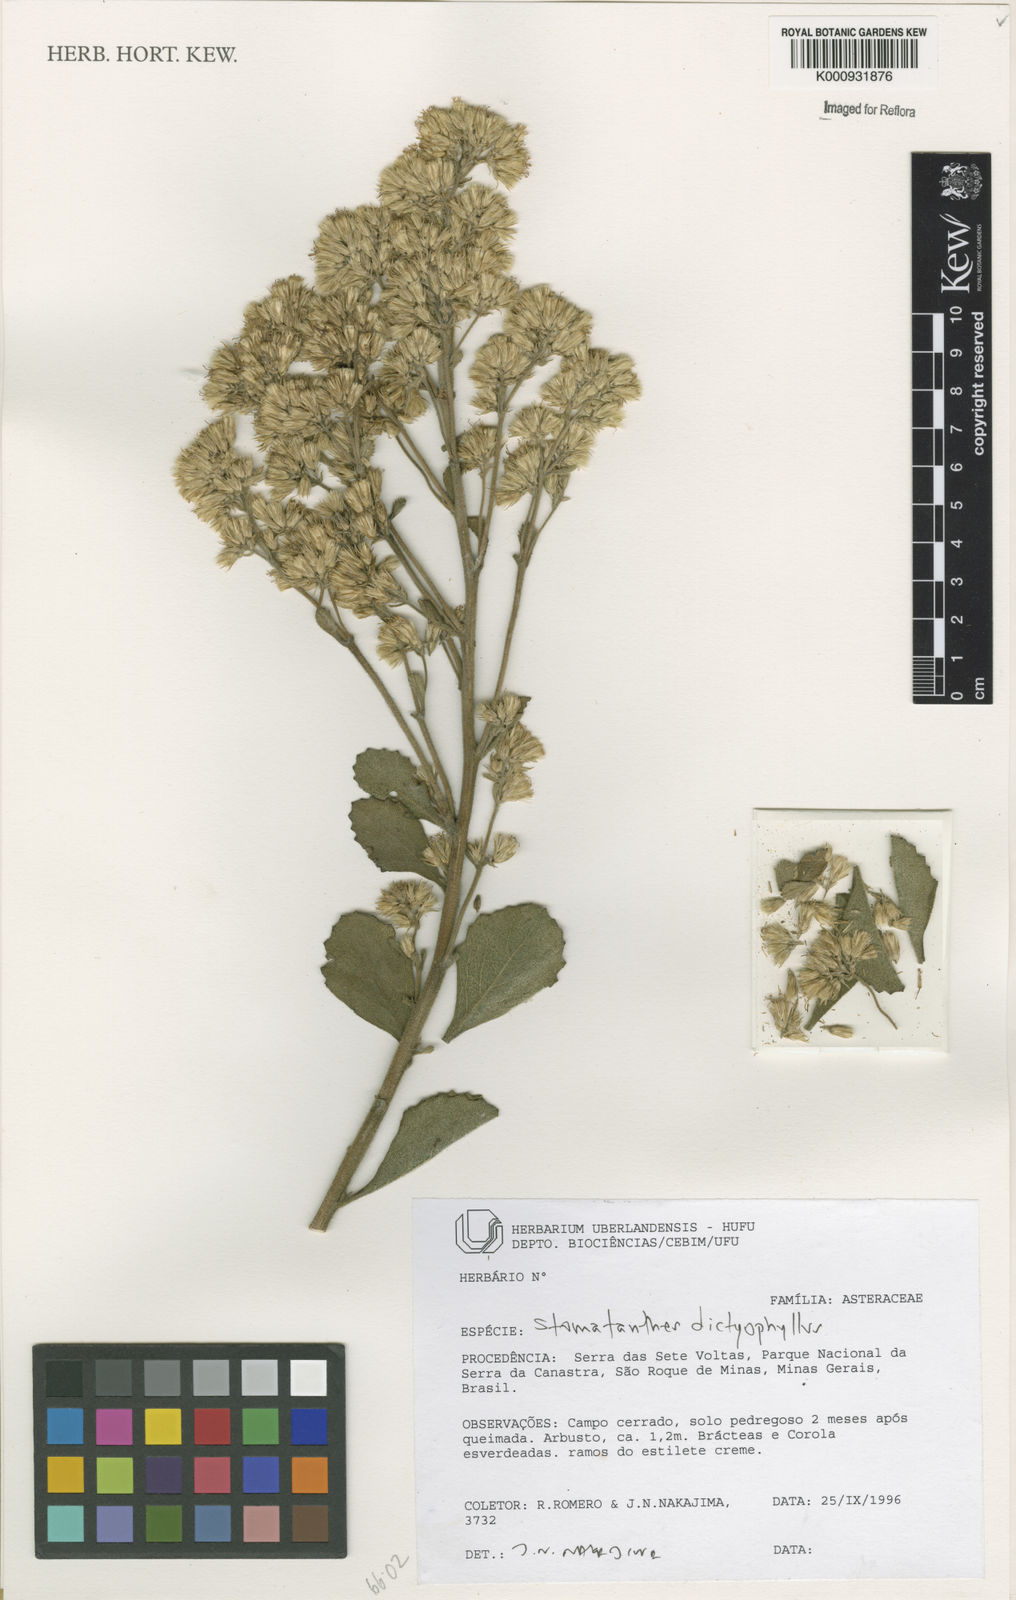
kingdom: Plantae
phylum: Tracheophyta
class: Magnoliopsida
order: Asterales
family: Asteraceae
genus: Stomatanthes
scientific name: Stomatanthes dictyophyllus
